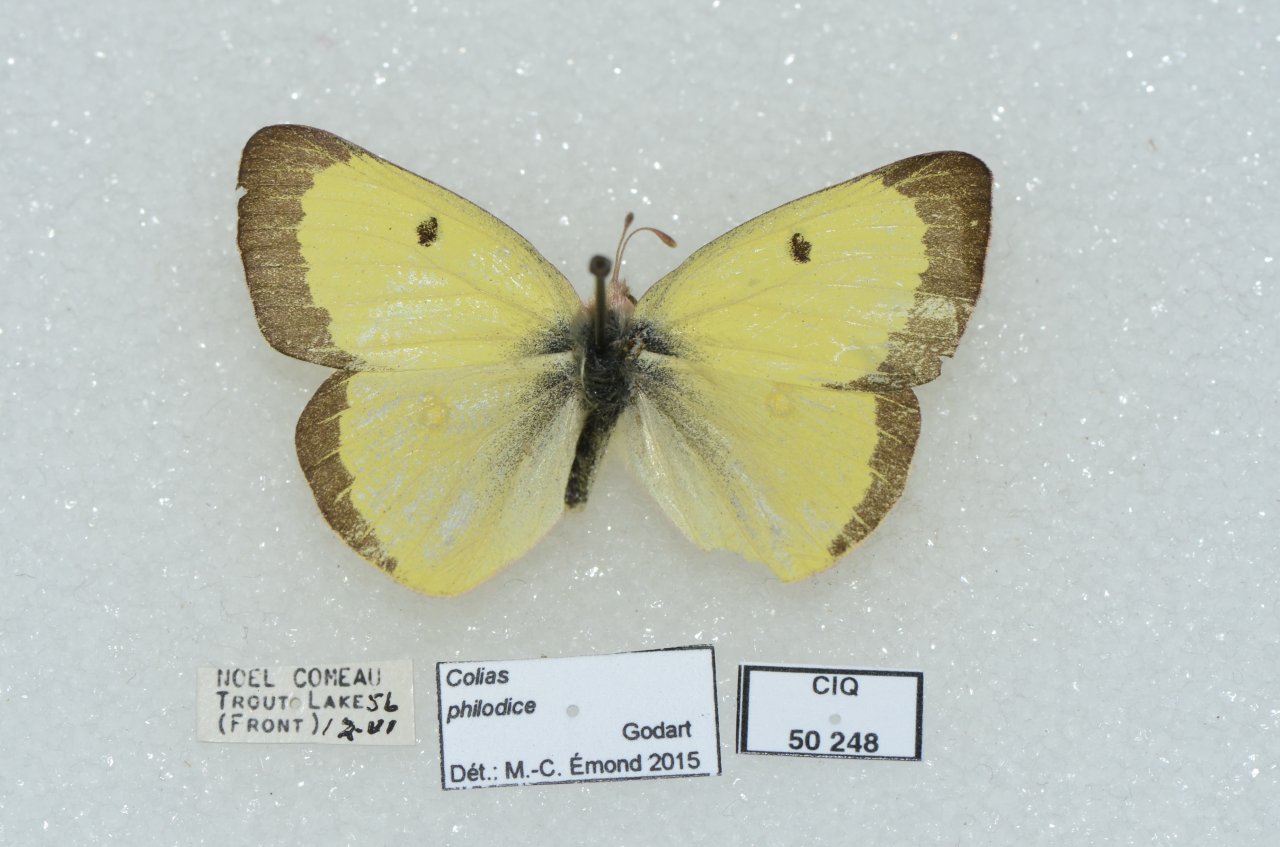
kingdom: Animalia
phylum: Arthropoda
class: Insecta
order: Lepidoptera
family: Pieridae
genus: Colias
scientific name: Colias philodice
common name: Clouded Sulphur
